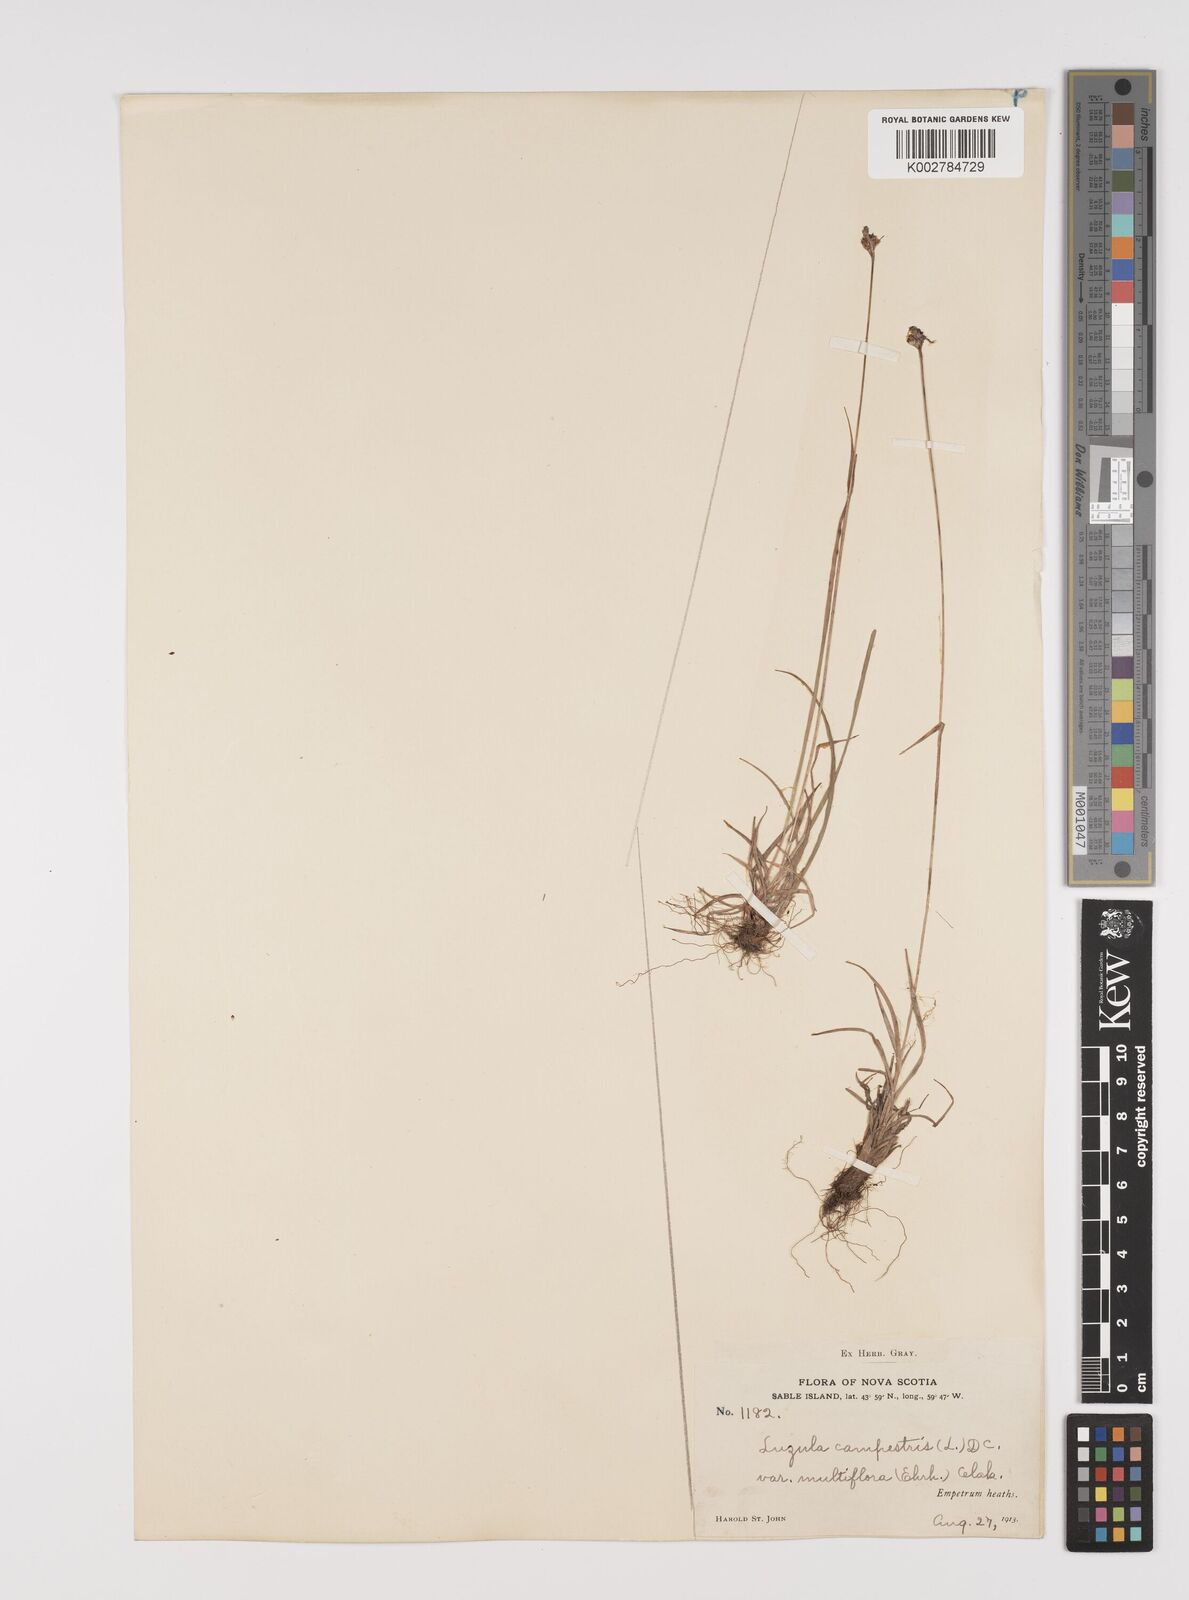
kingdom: Plantae
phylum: Tracheophyta
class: Liliopsida
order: Poales
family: Juncaceae
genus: Luzula
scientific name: Luzula campestris
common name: Field wood-rush
